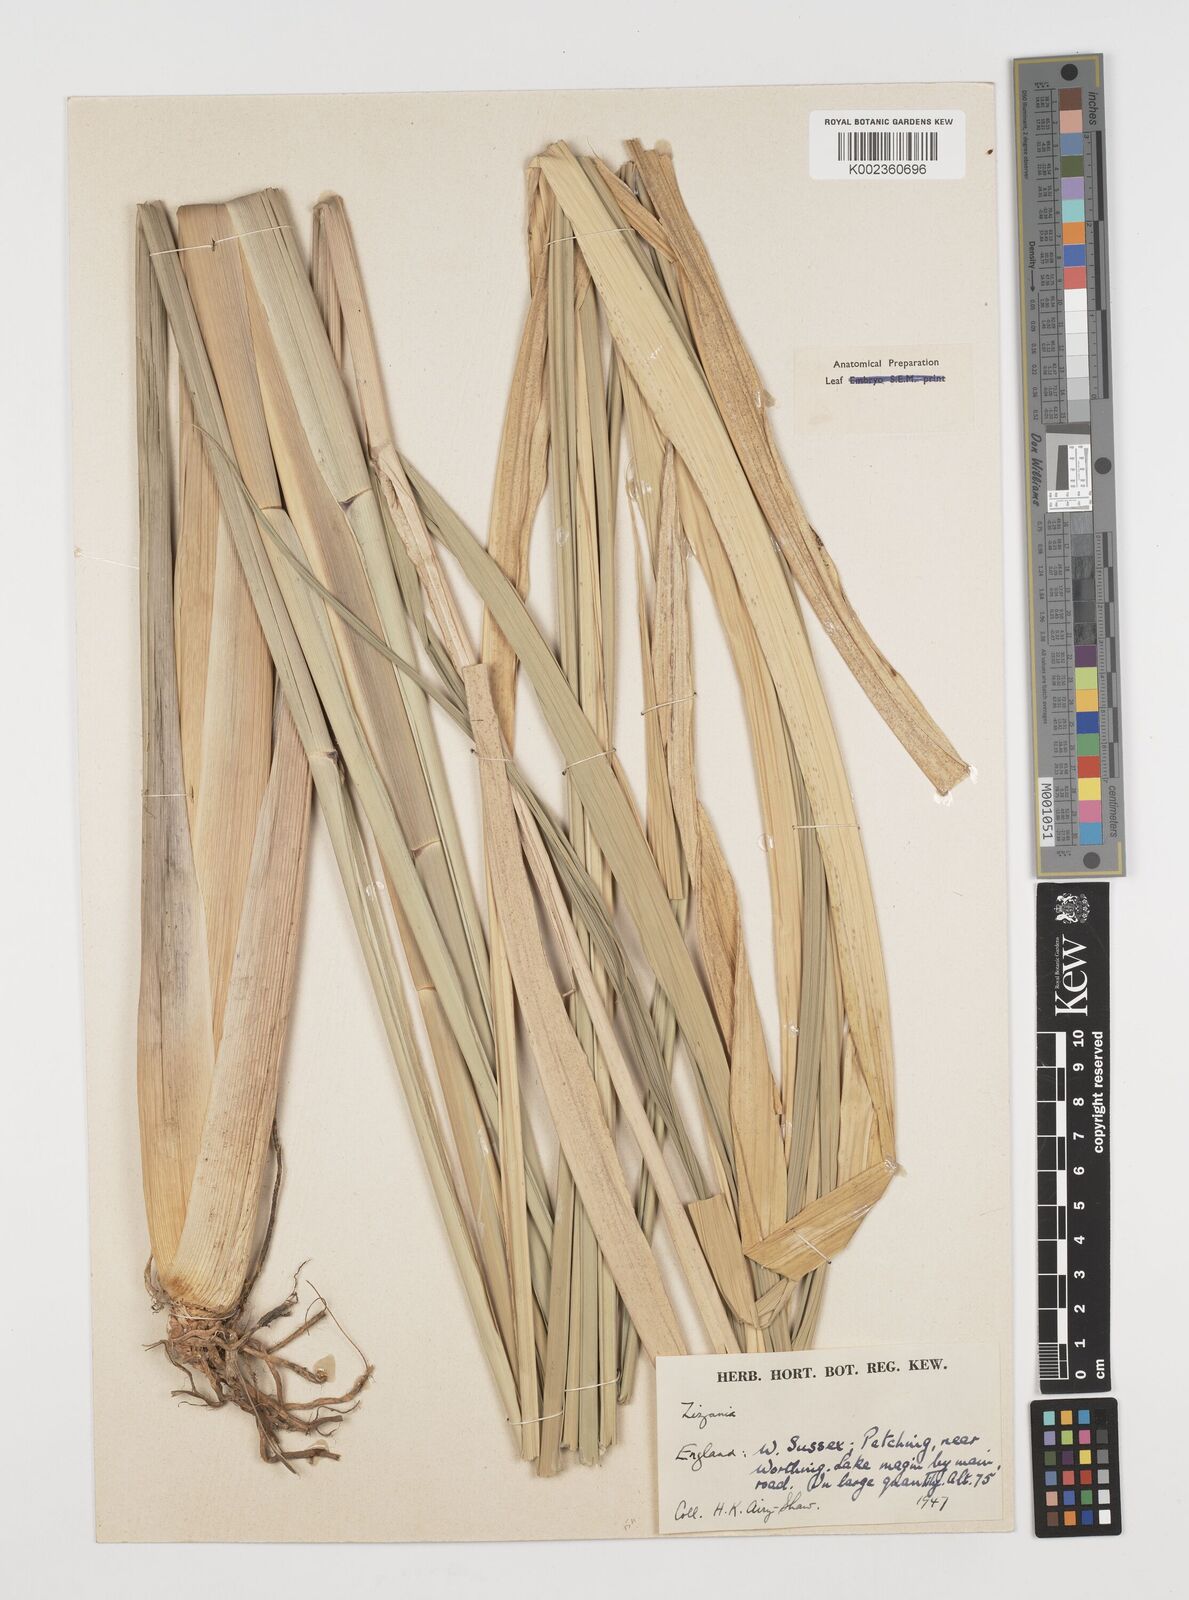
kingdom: Plantae
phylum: Tracheophyta
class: Liliopsida
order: Poales
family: Poaceae
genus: Zizania
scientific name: Zizania latifolia
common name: Manchurian wildrice
